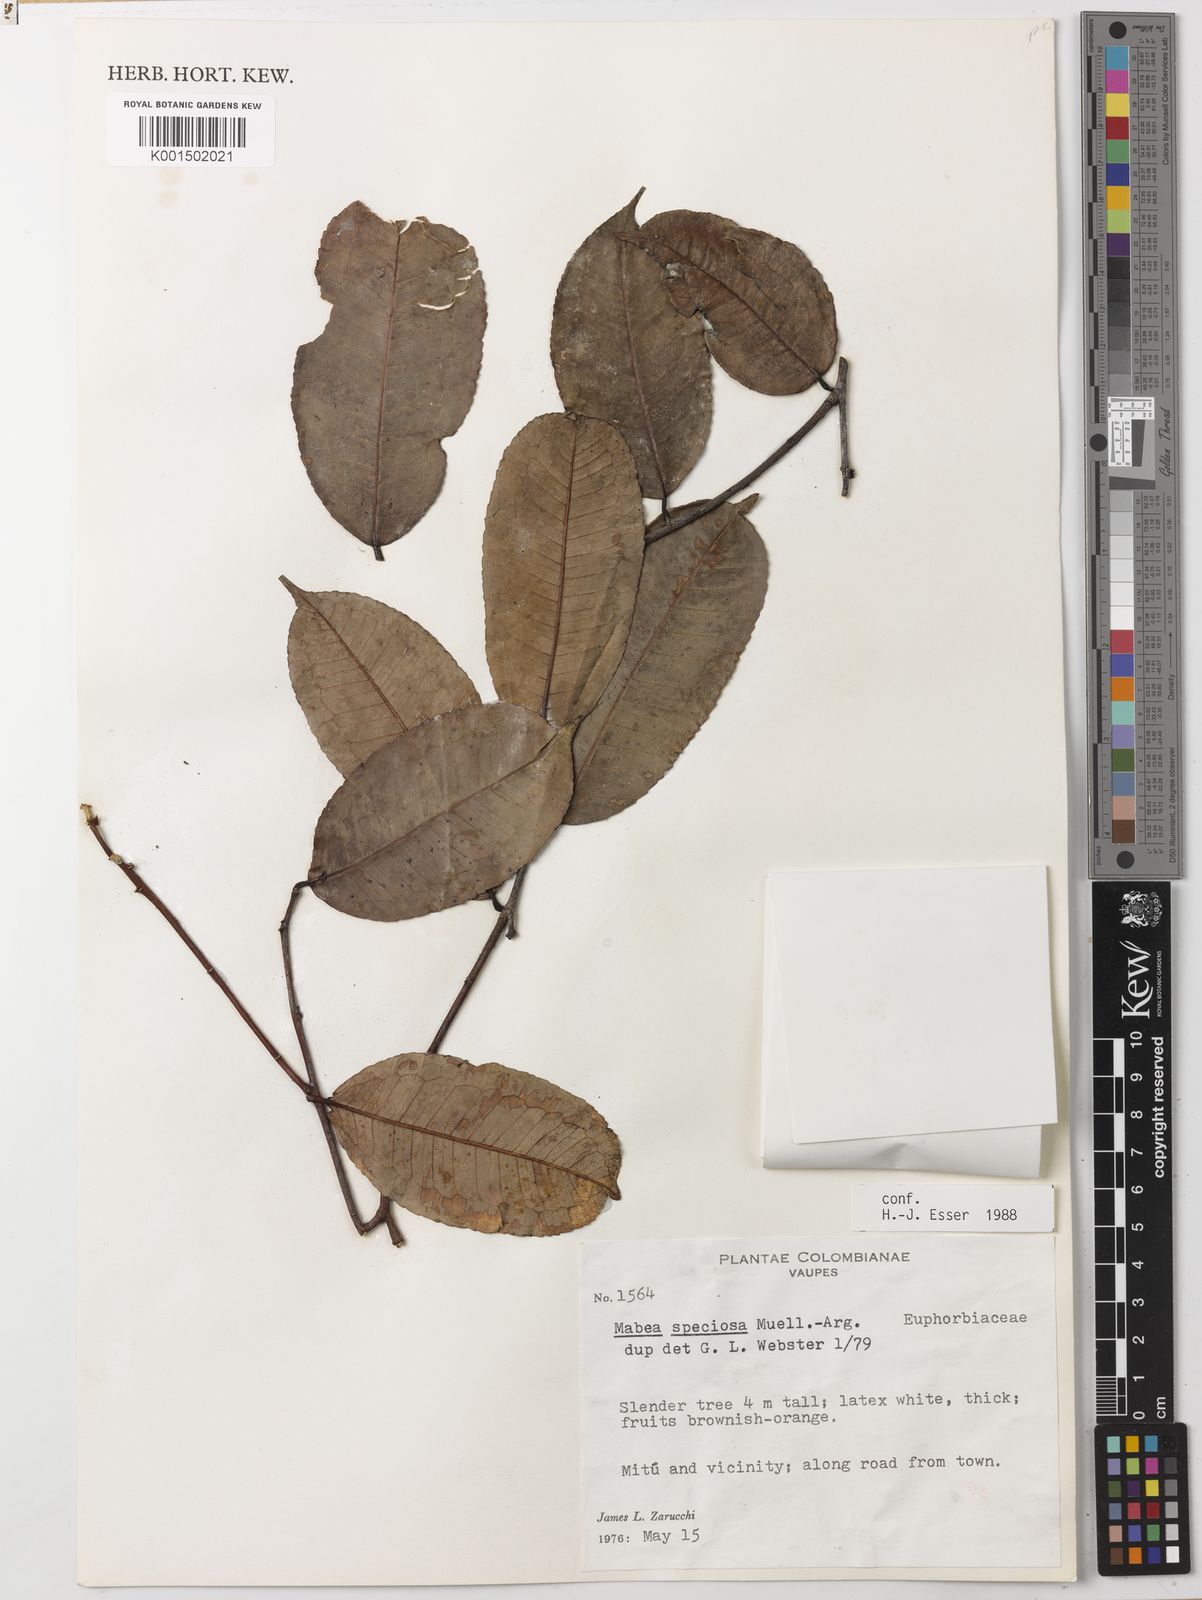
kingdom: Plantae
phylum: Tracheophyta
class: Magnoliopsida
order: Malpighiales
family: Euphorbiaceae
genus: Mabea
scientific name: Mabea speciosa
